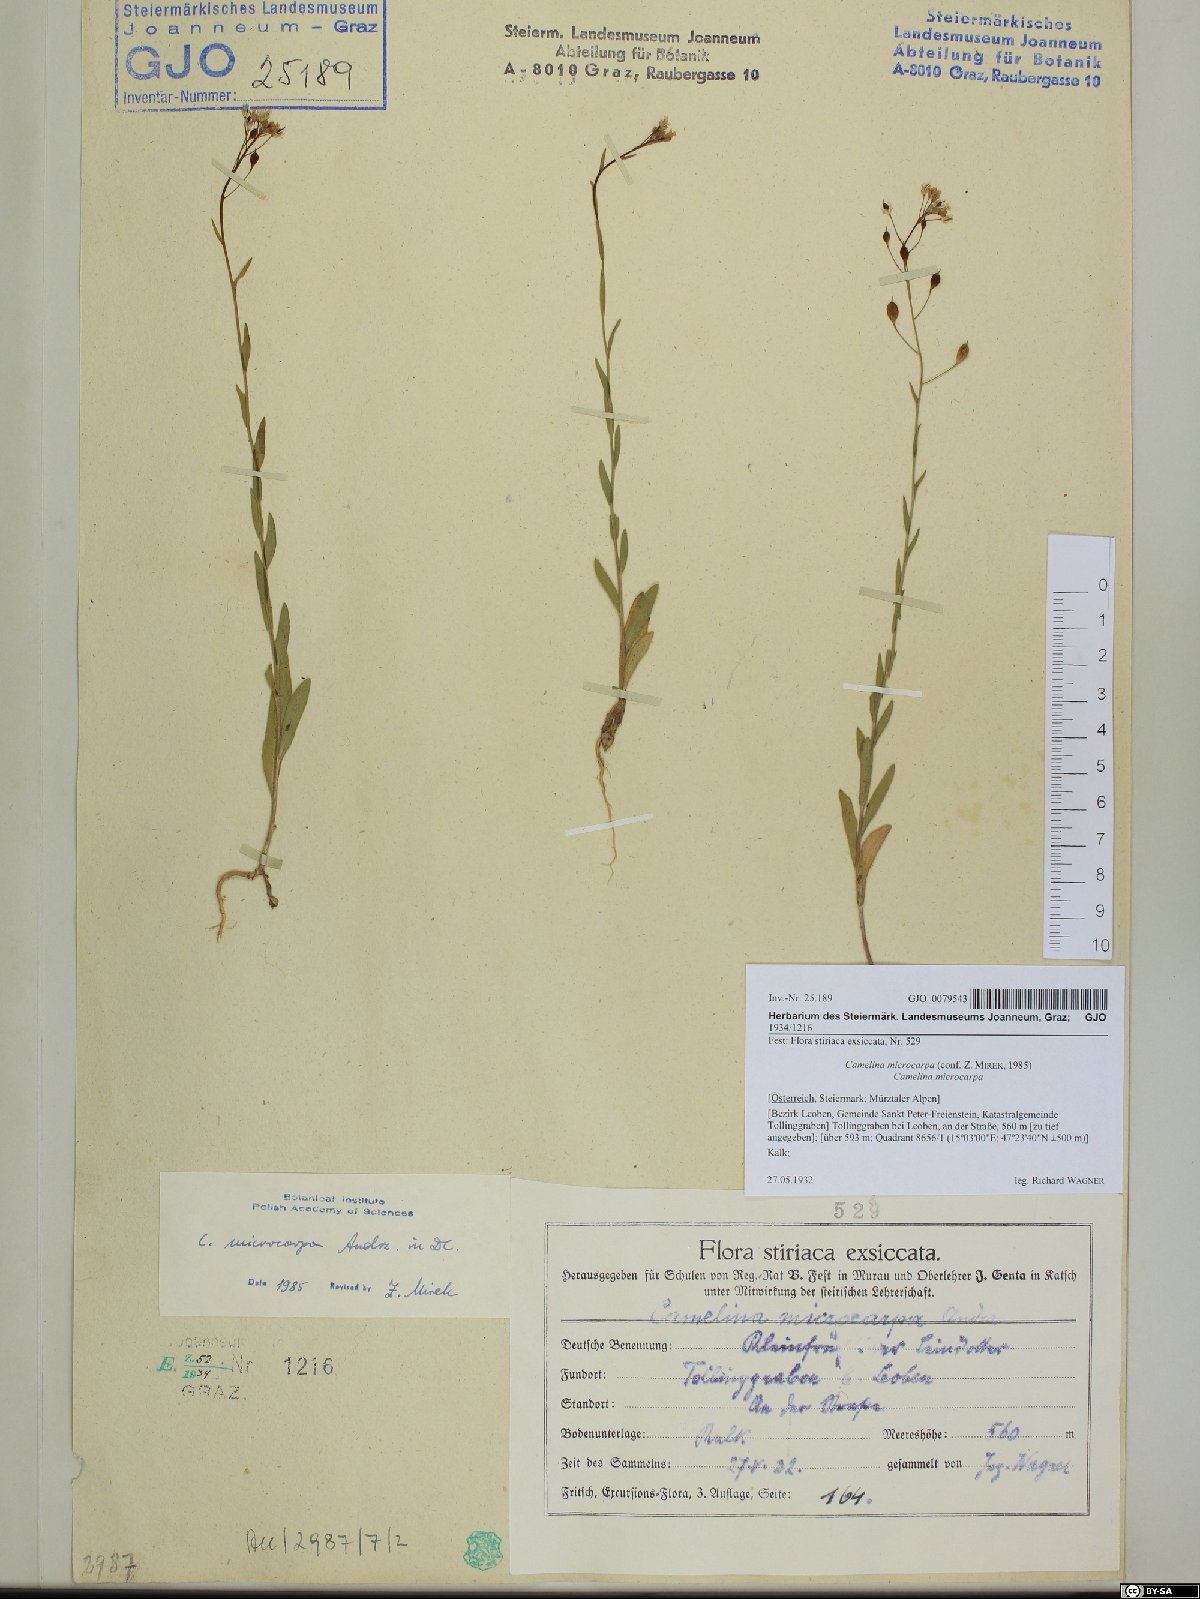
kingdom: Plantae
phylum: Tracheophyta
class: Magnoliopsida
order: Brassicales
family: Brassicaceae
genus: Camelina
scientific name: Camelina microcarpa
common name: Lesser gold-of-pleasure
